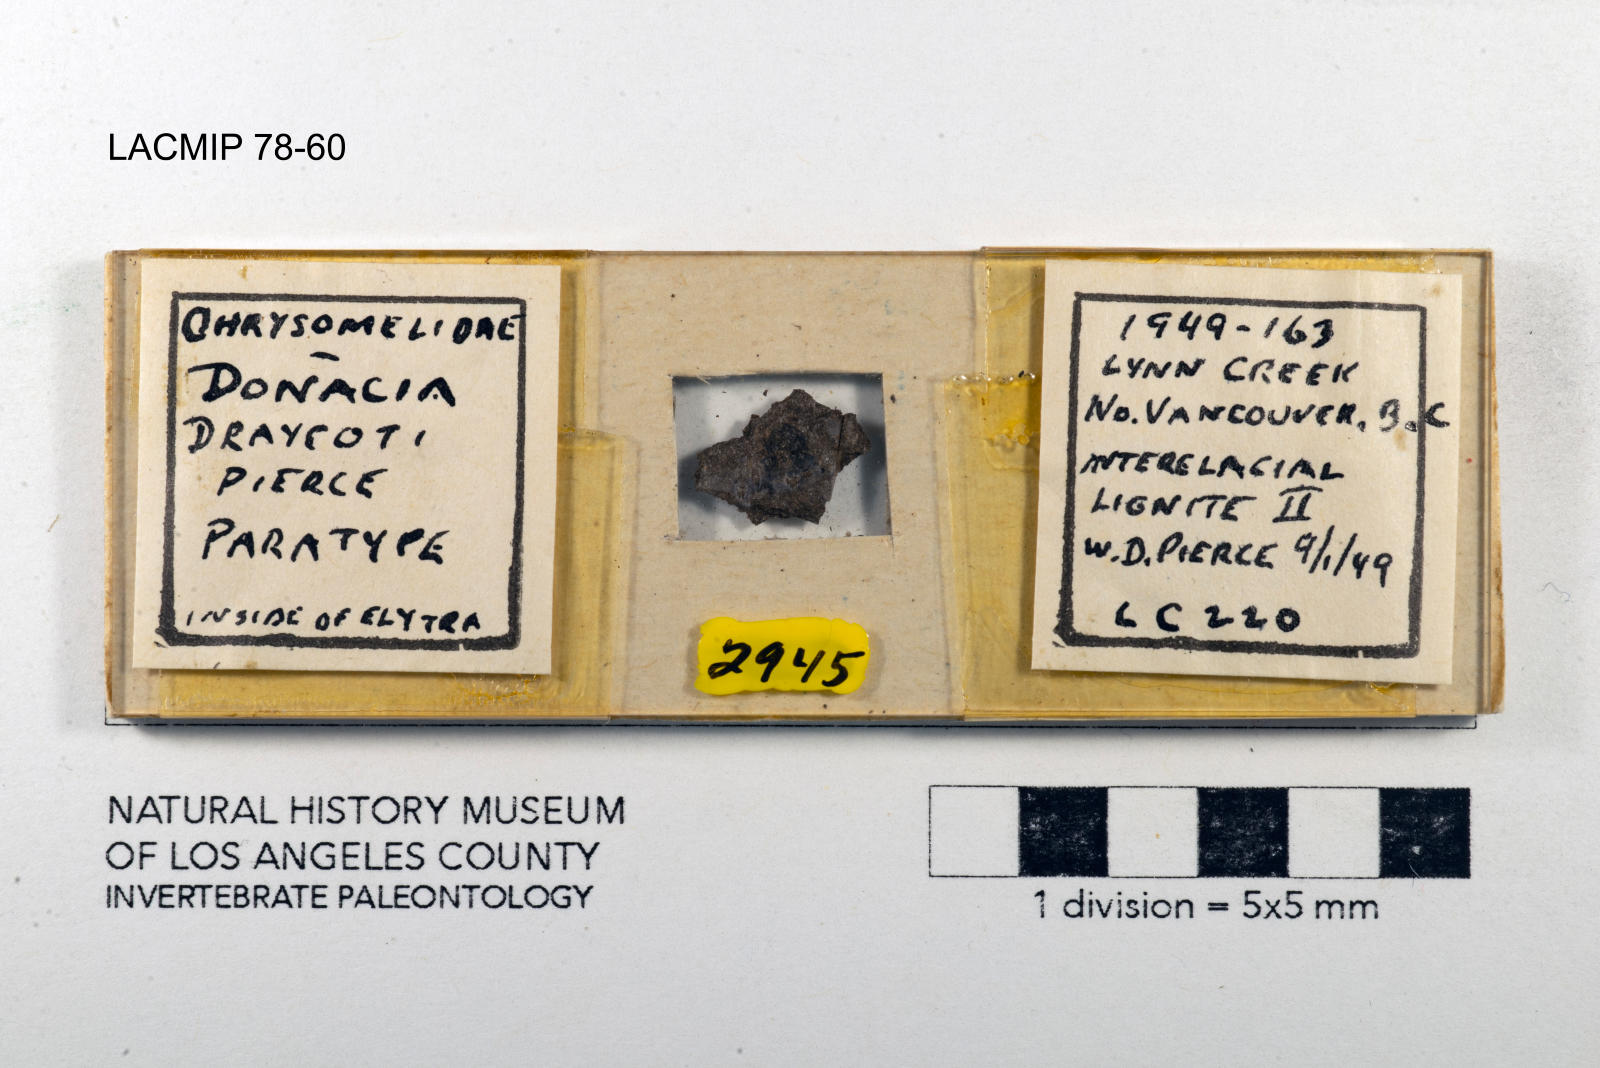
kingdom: Animalia
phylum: Arthropoda
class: Insecta
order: Coleoptera
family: Chrysomelidae
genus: Donacia
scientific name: Donacia draycoti
